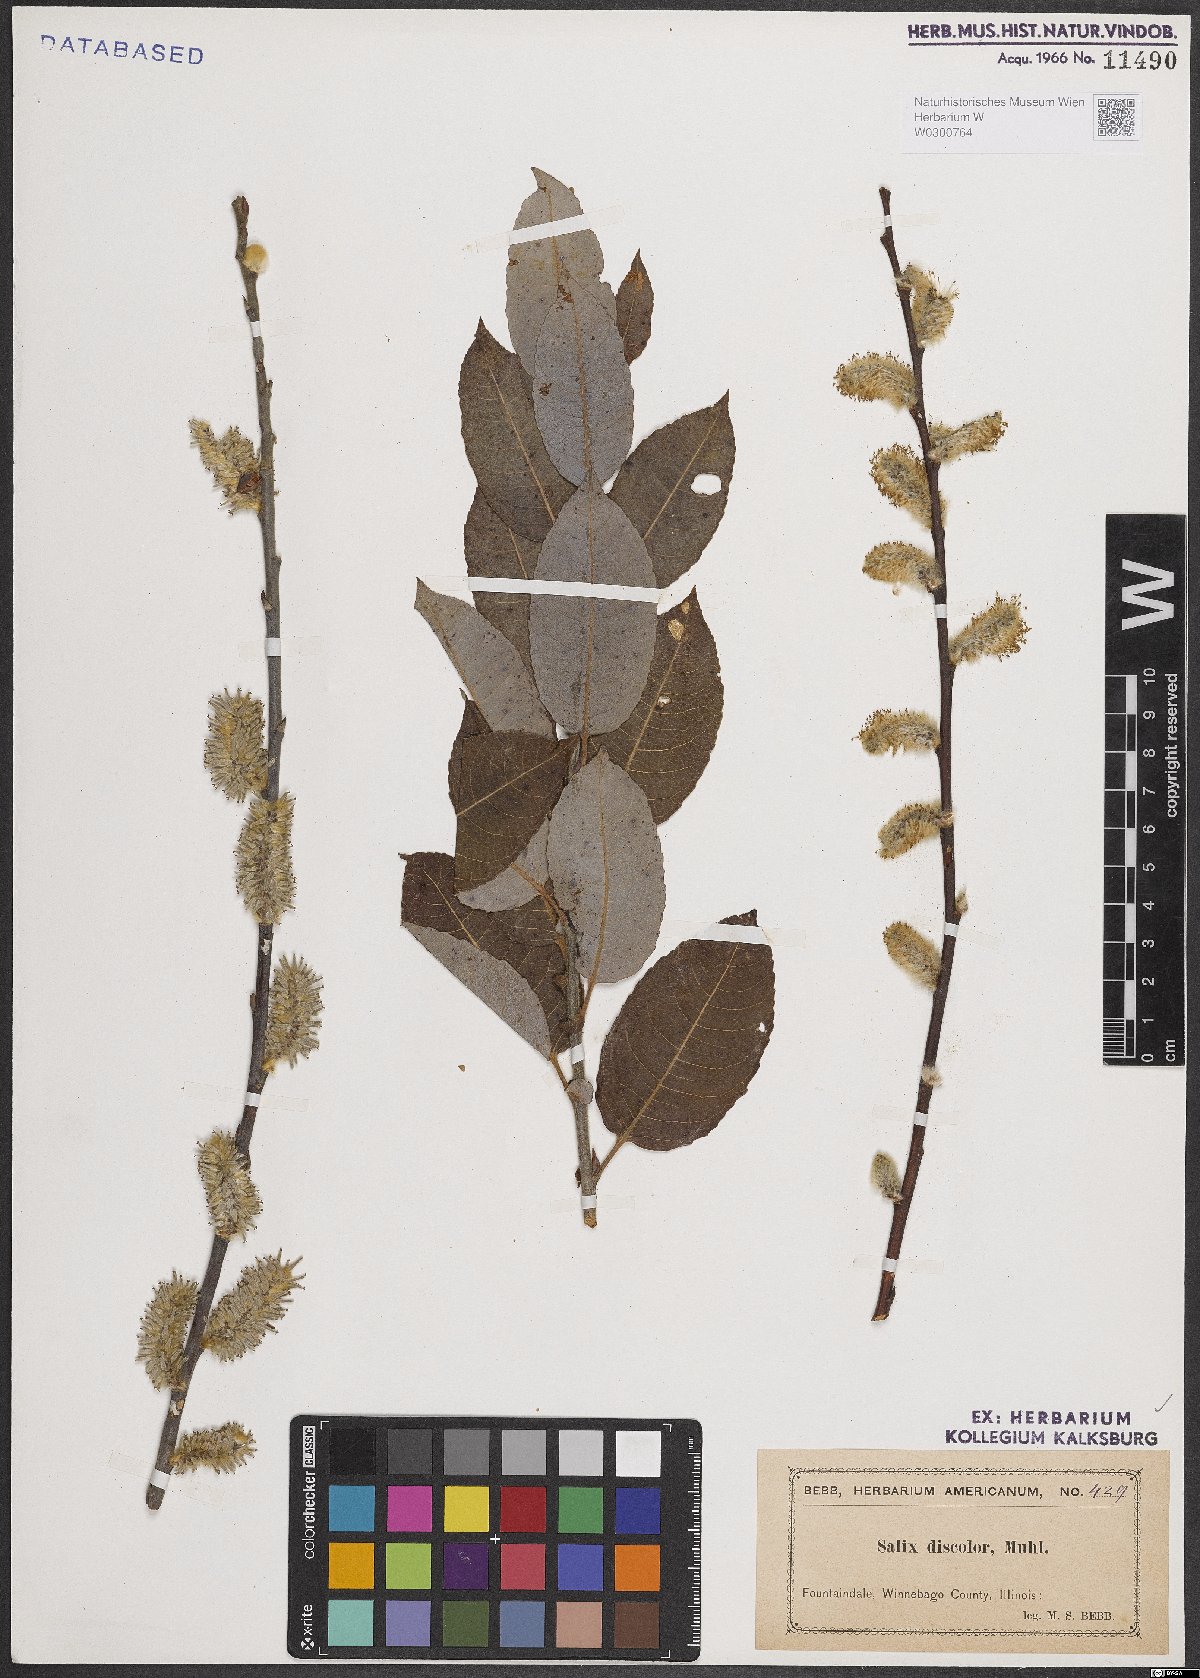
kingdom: Plantae
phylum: Tracheophyta
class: Magnoliopsida
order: Malpighiales
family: Salicaceae
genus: Salix
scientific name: Salix discolor
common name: Glaucous willow
